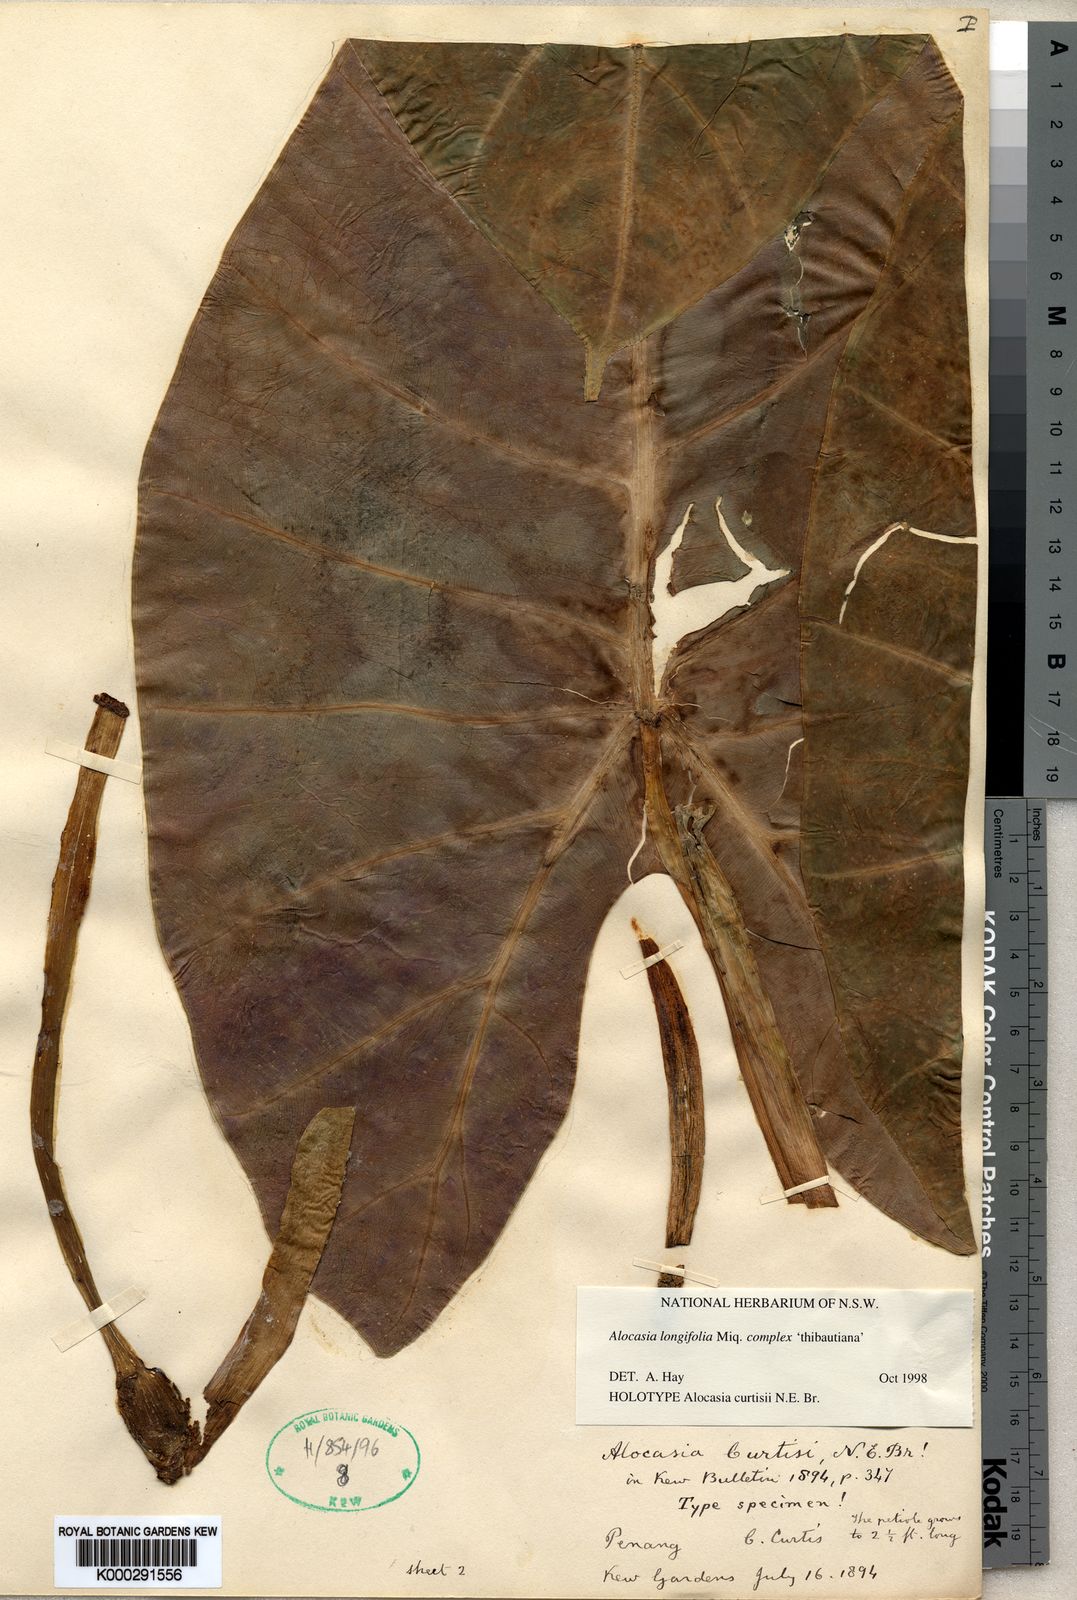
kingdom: Plantae
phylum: Tracheophyta
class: Liliopsida
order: Alismatales
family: Araceae
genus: Alocasia
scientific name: Alocasia longiloba
